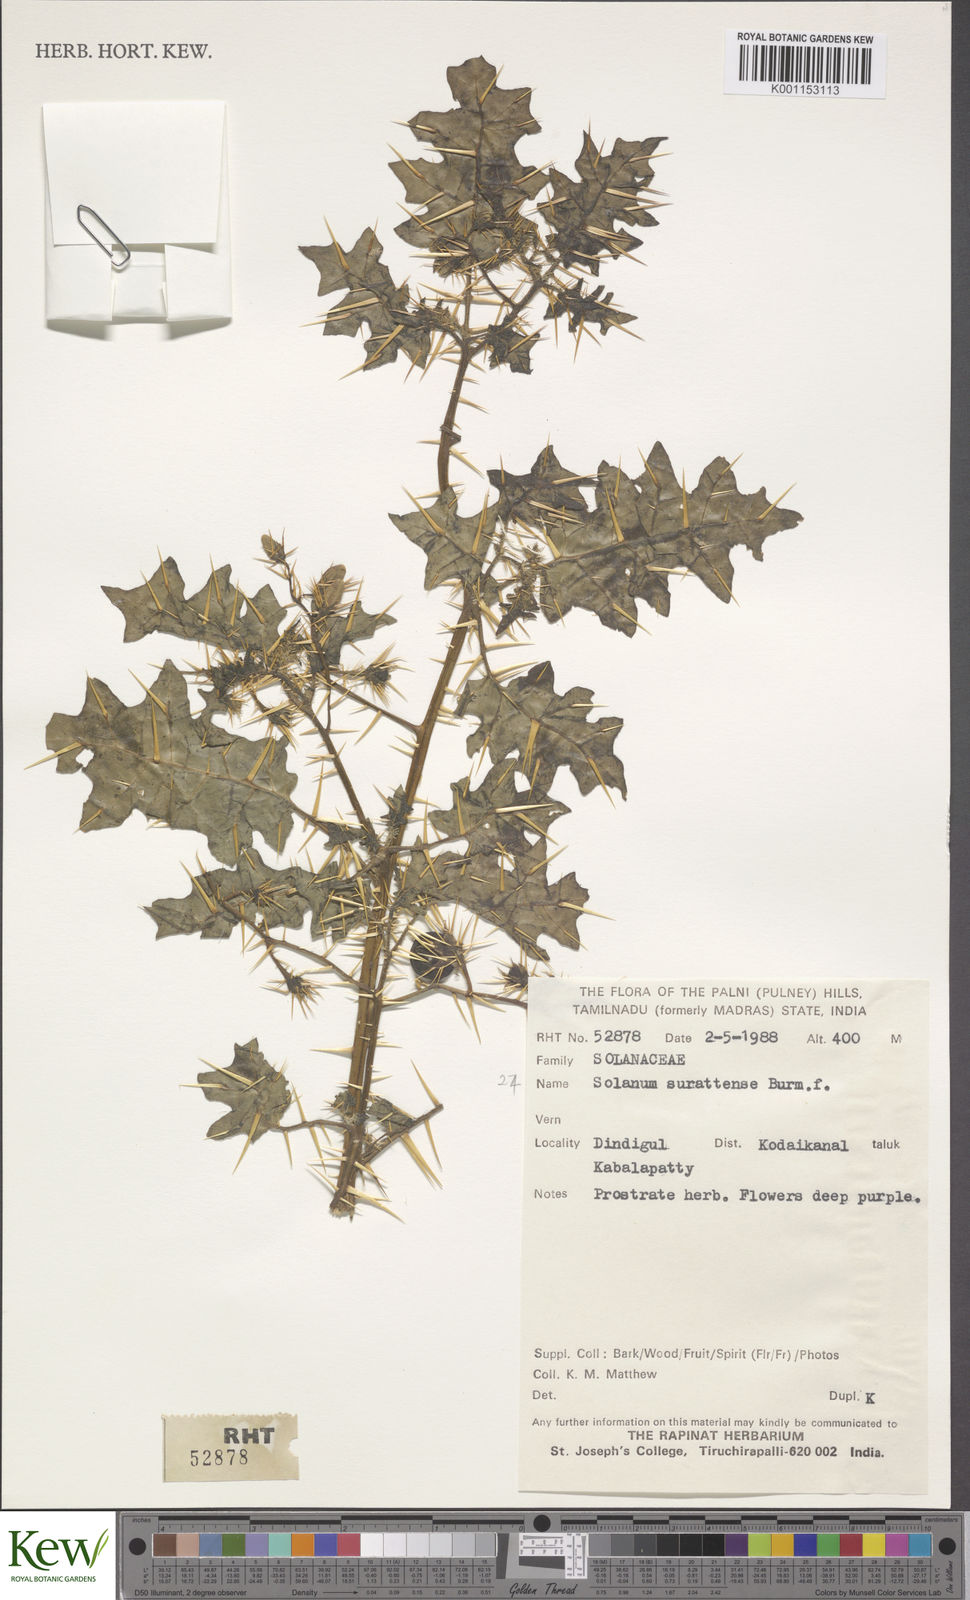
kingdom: Plantae
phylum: Tracheophyta
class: Magnoliopsida
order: Solanales
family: Solanaceae
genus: Solanum
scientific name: Solanum virginianum
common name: Surattense nightshade
